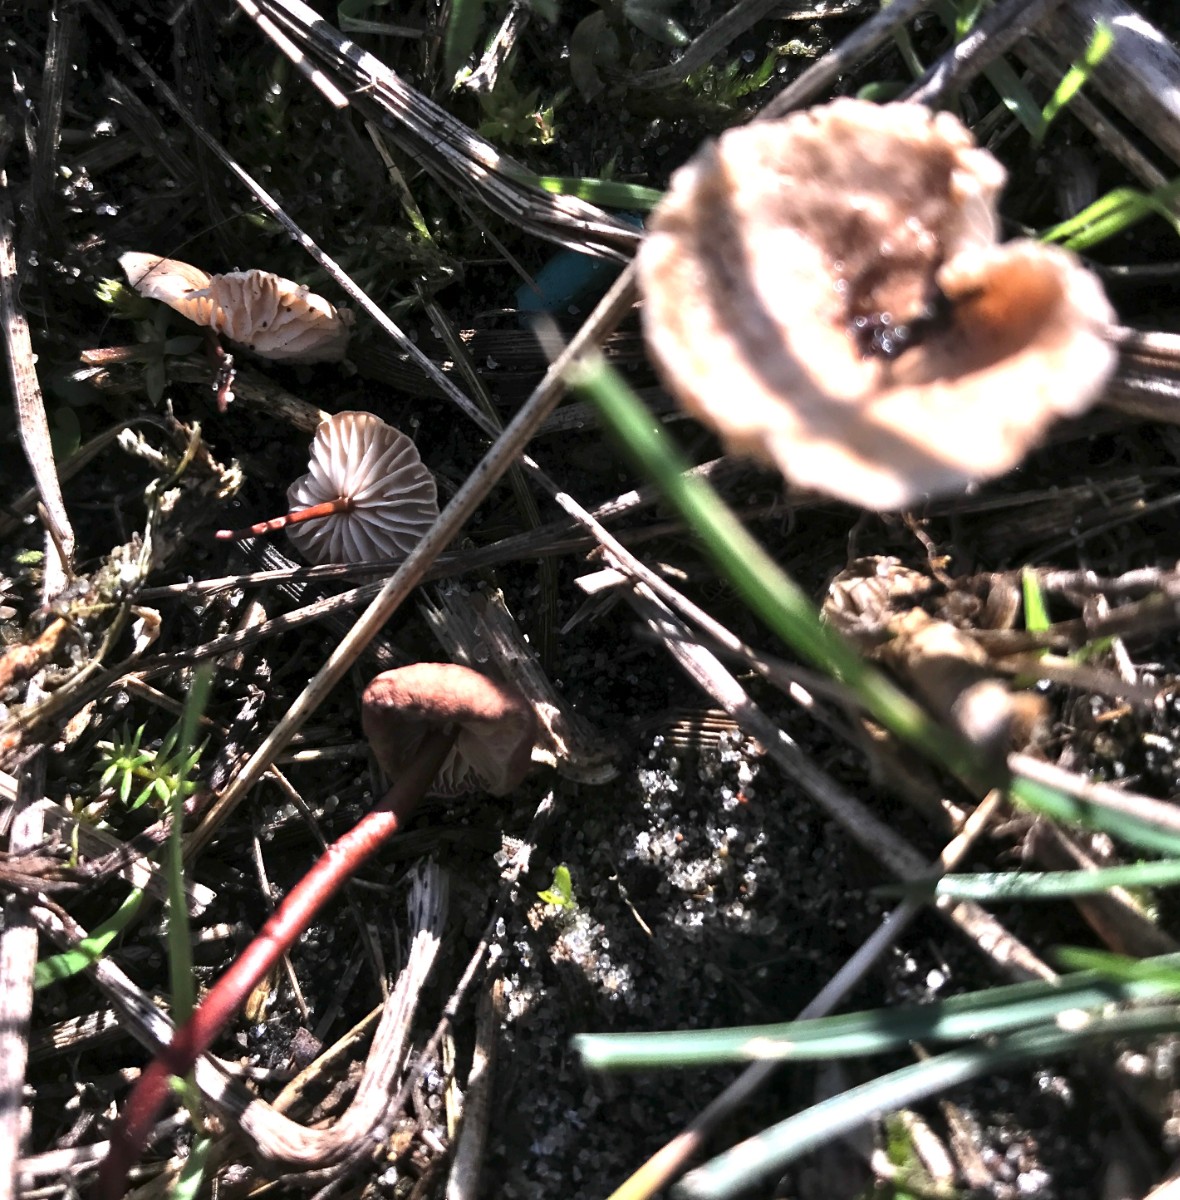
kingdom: Fungi
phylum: Basidiomycota
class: Agaricomycetes
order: Agaricales
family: Omphalotaceae
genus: Mycetinis
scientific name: Mycetinis scorodonius
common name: lille løghat
